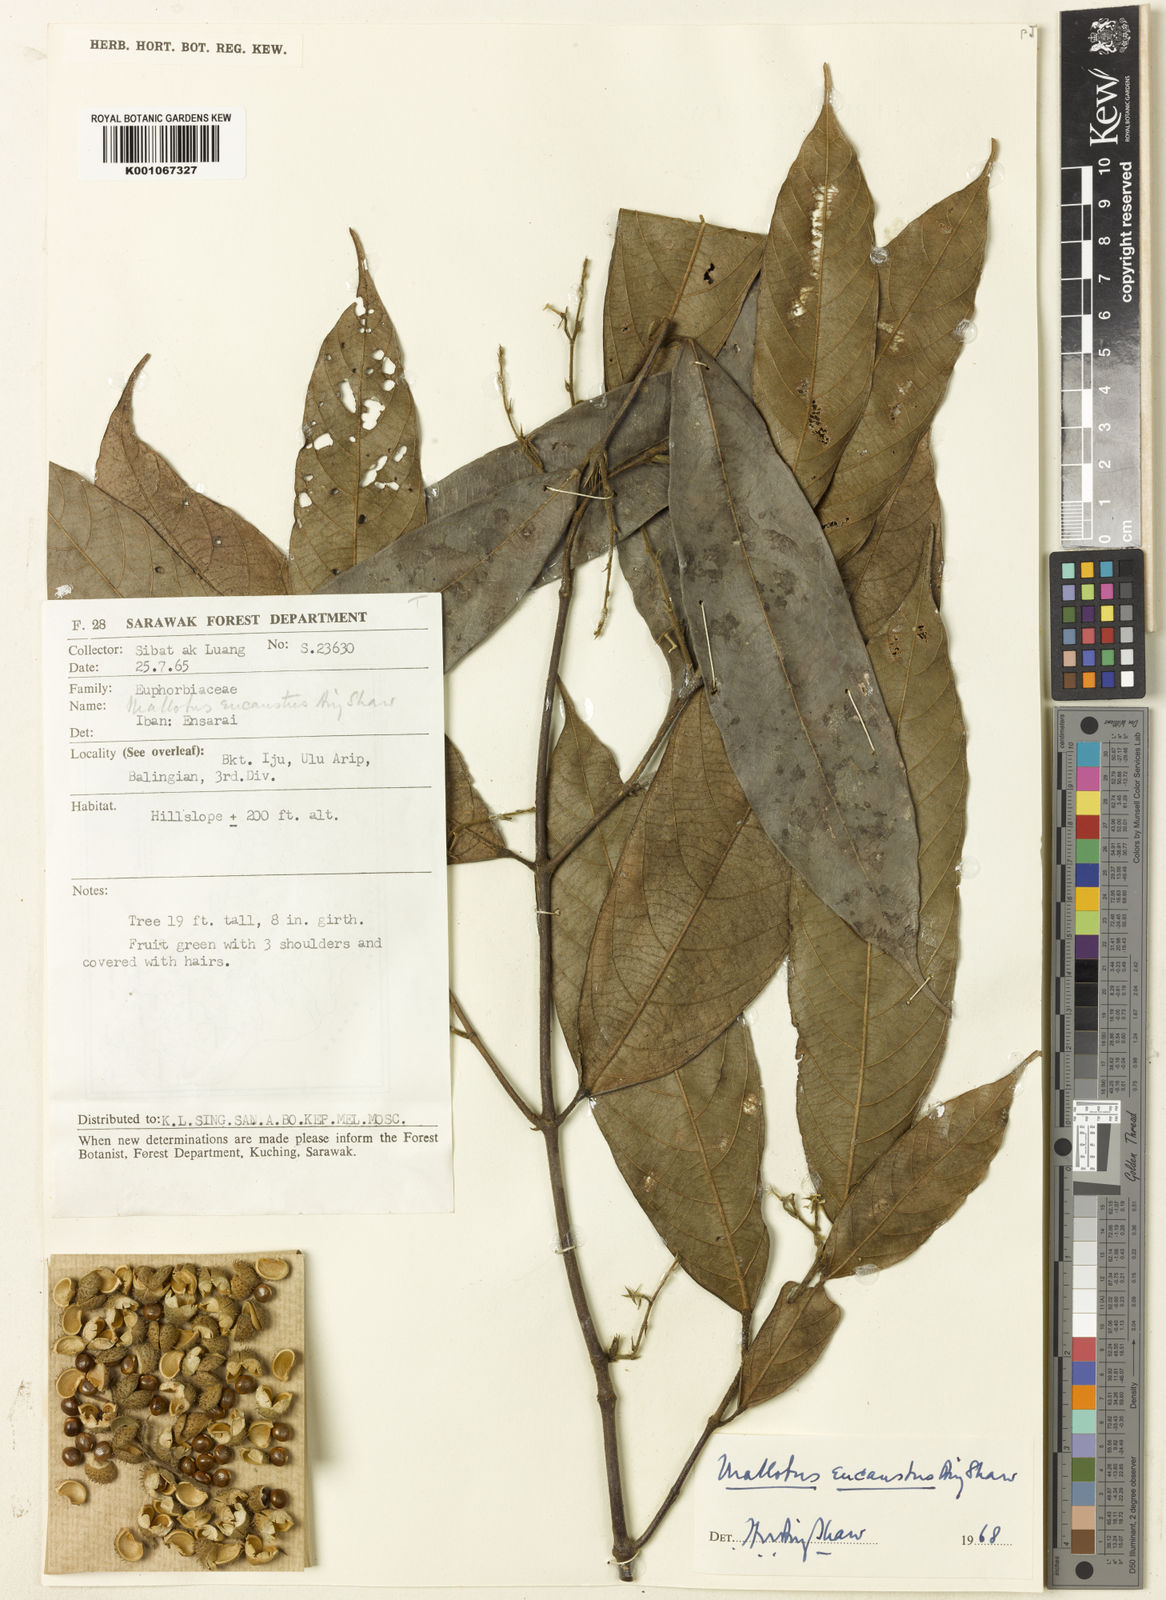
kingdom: Plantae
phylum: Tracheophyta
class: Magnoliopsida
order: Malpighiales
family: Euphorbiaceae
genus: Hancea
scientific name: Hancea eucausta
